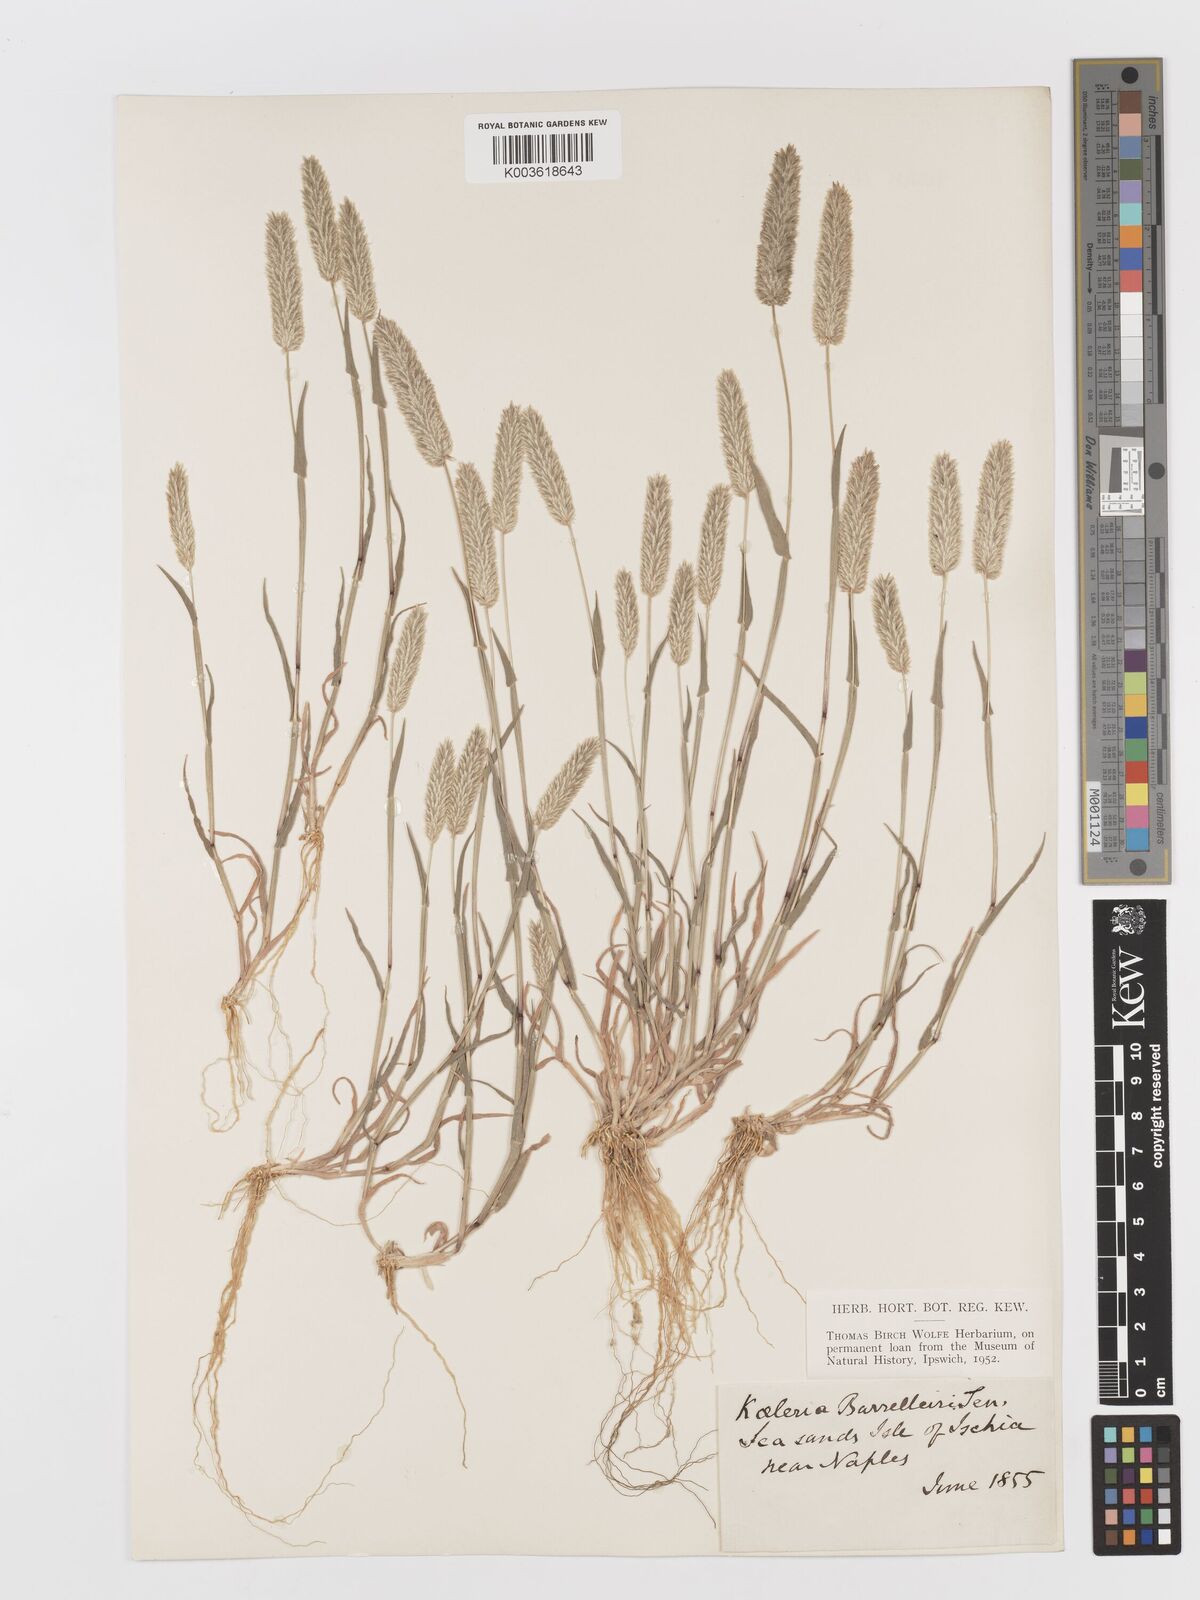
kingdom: Plantae
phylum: Tracheophyta
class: Liliopsida
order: Poales
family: Poaceae
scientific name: Poaceae
